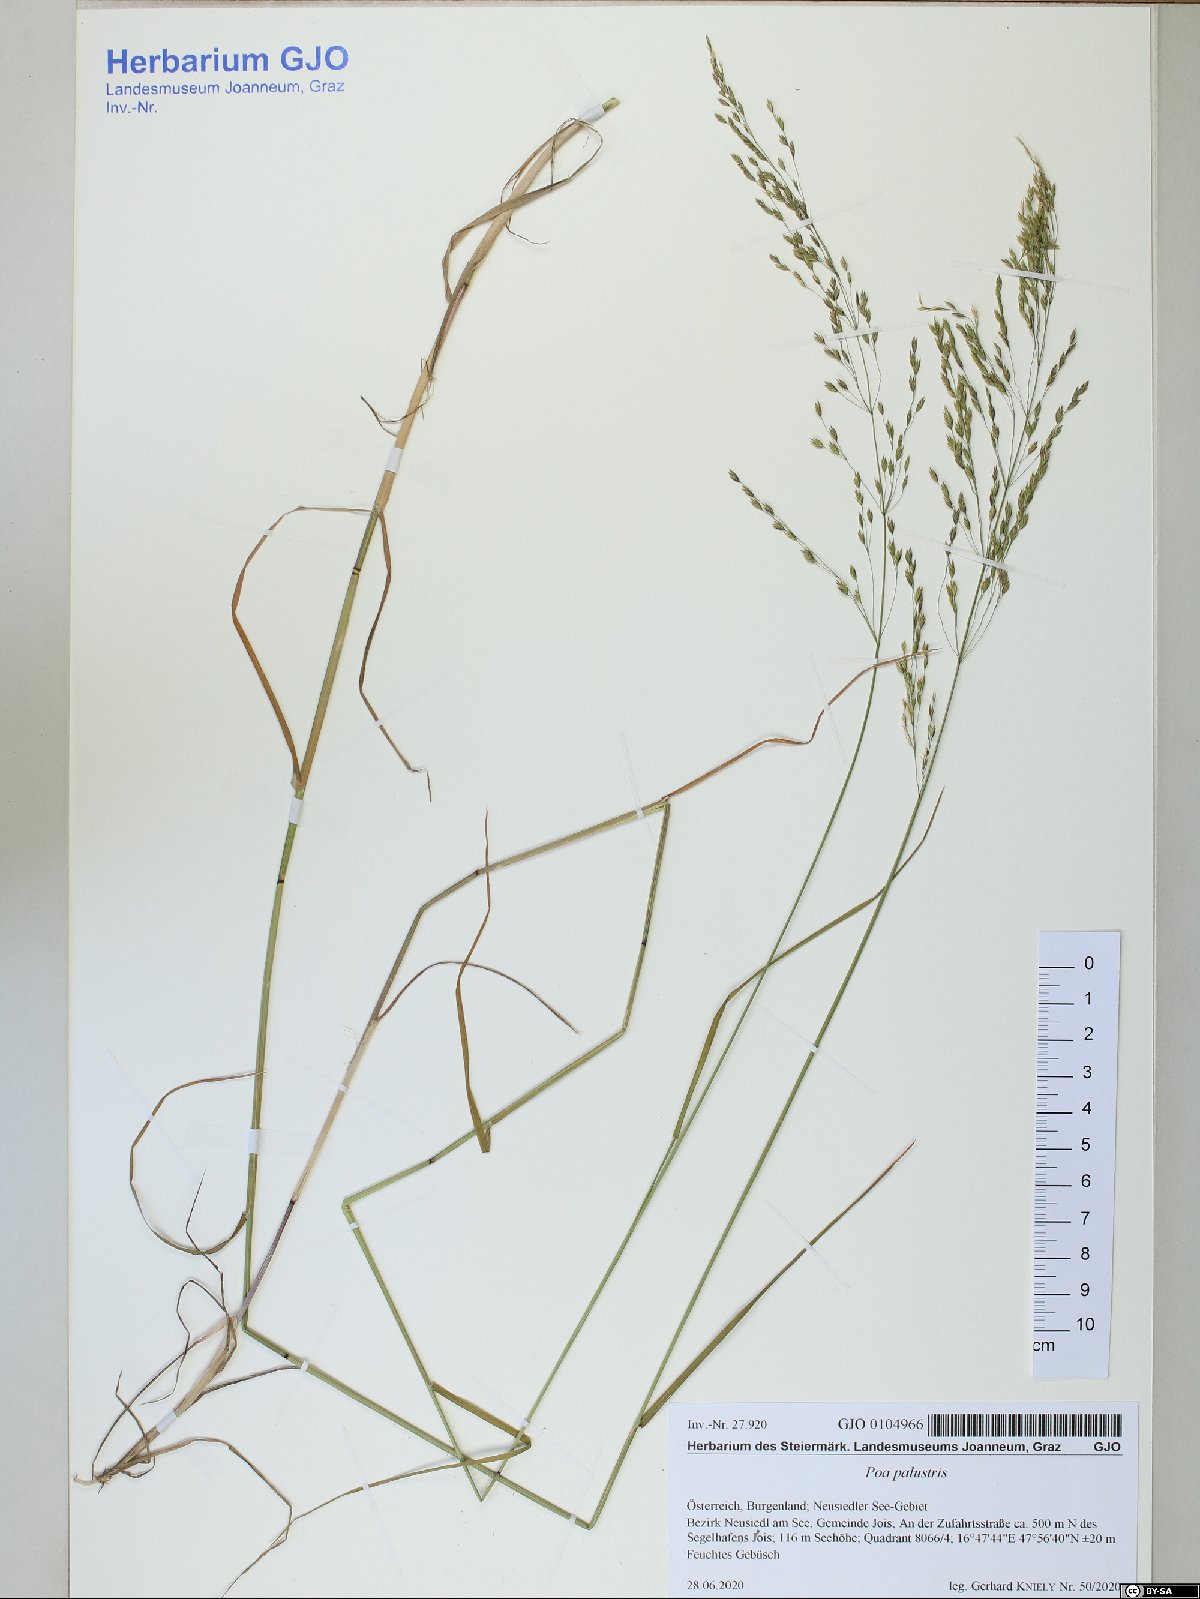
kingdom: Plantae
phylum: Tracheophyta
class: Liliopsida
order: Poales
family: Poaceae
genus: Poa
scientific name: Poa palustris
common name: Swamp meadow-grass
